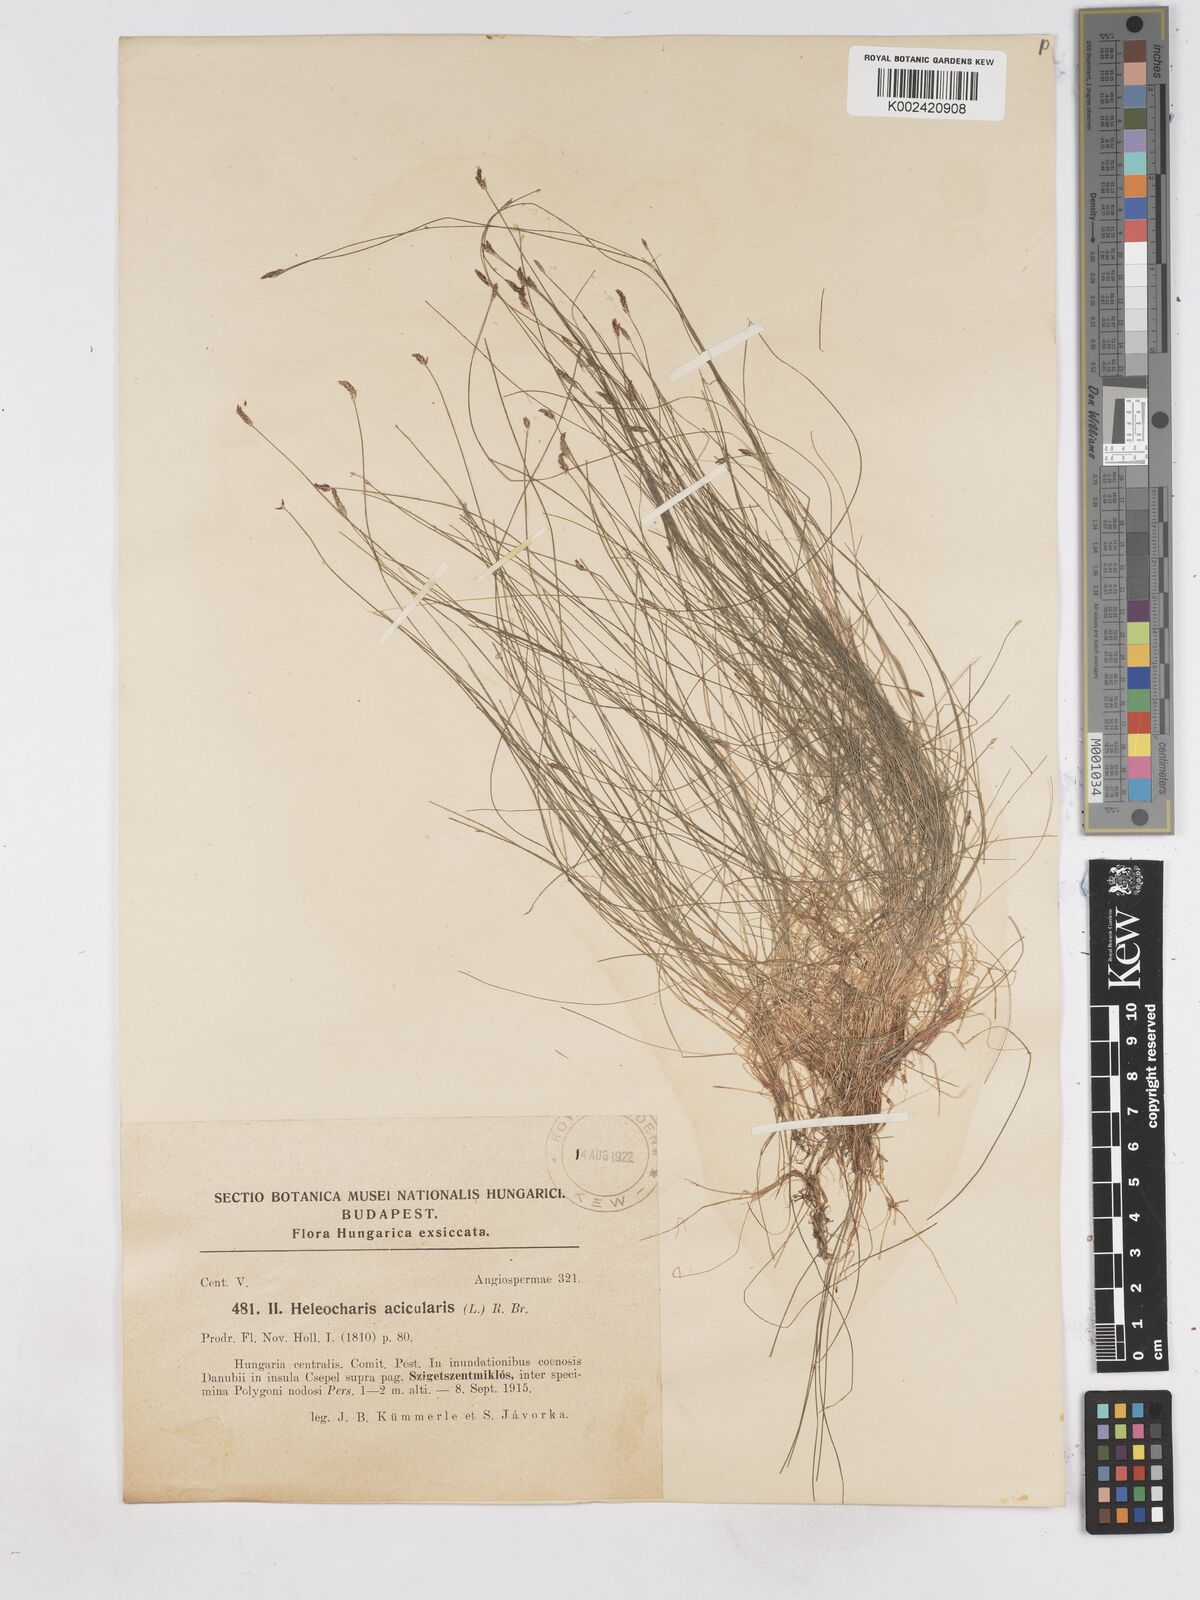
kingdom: Plantae
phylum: Tracheophyta
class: Liliopsida
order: Poales
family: Cyperaceae
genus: Eleocharis
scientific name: Eleocharis acicularis
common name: Needle spike-rush
